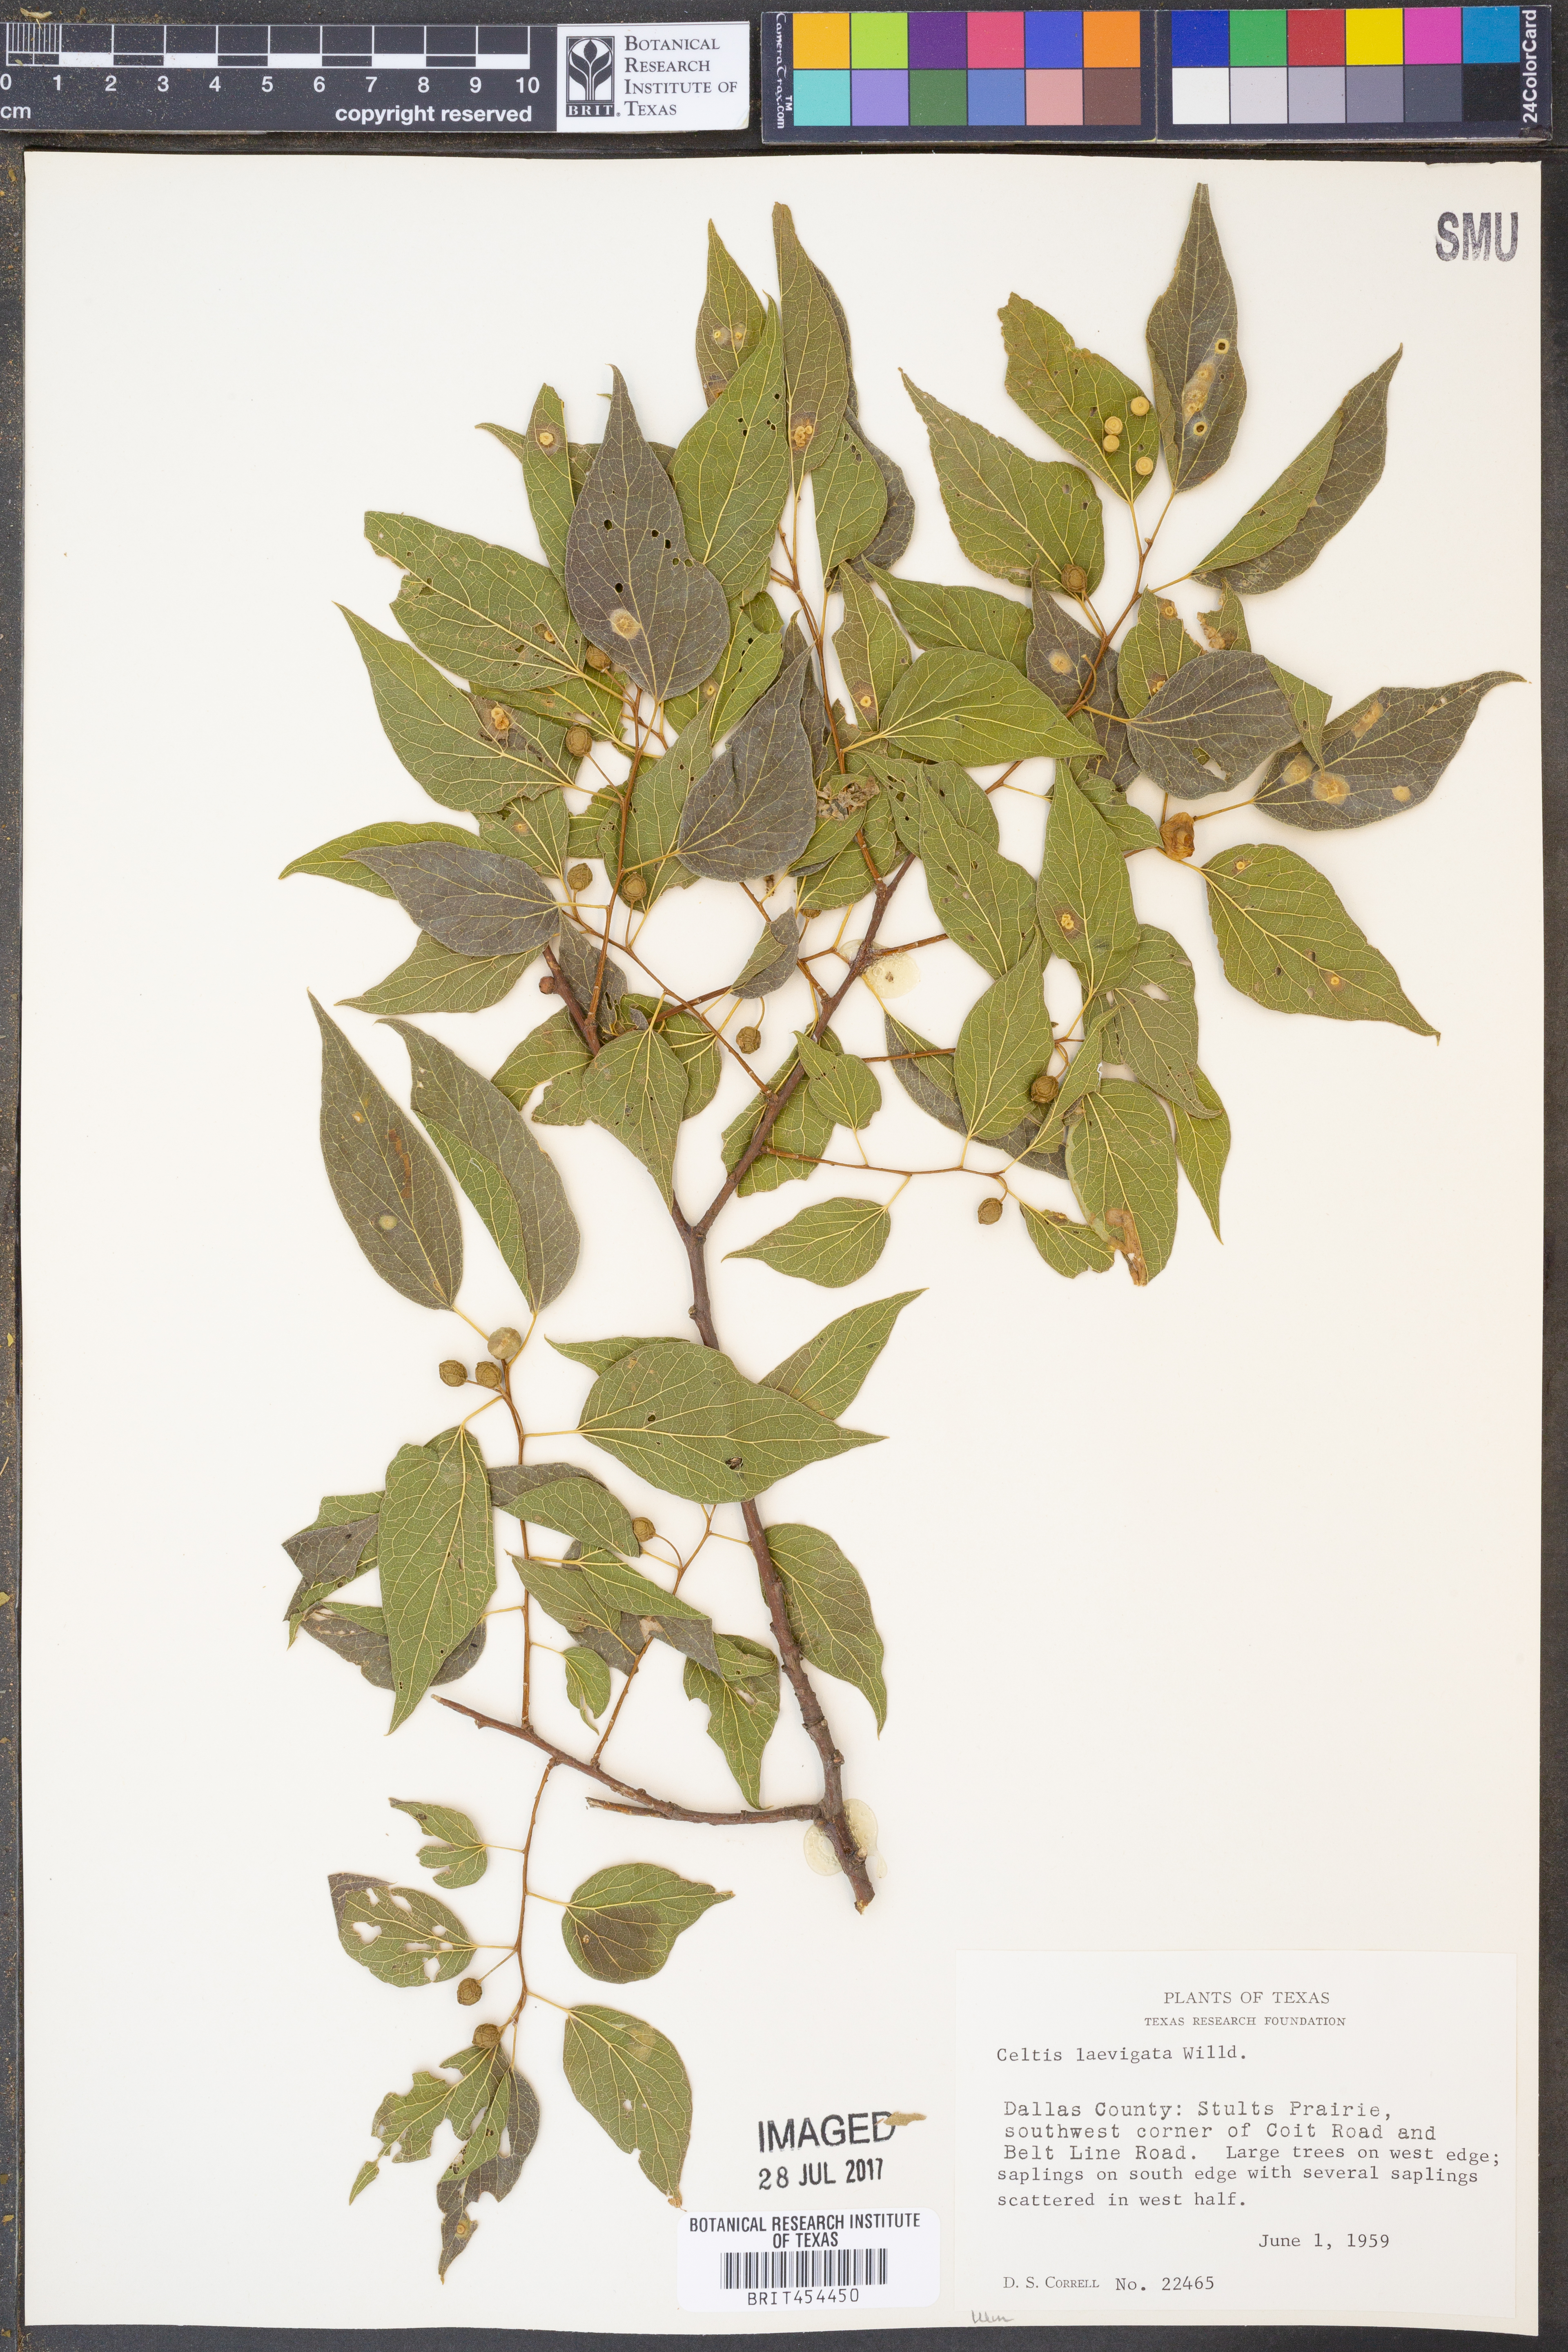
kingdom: Plantae
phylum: Tracheophyta
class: Magnoliopsida
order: Rosales
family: Cannabaceae
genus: Celtis
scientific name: Celtis laevigata
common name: Sugarberry
